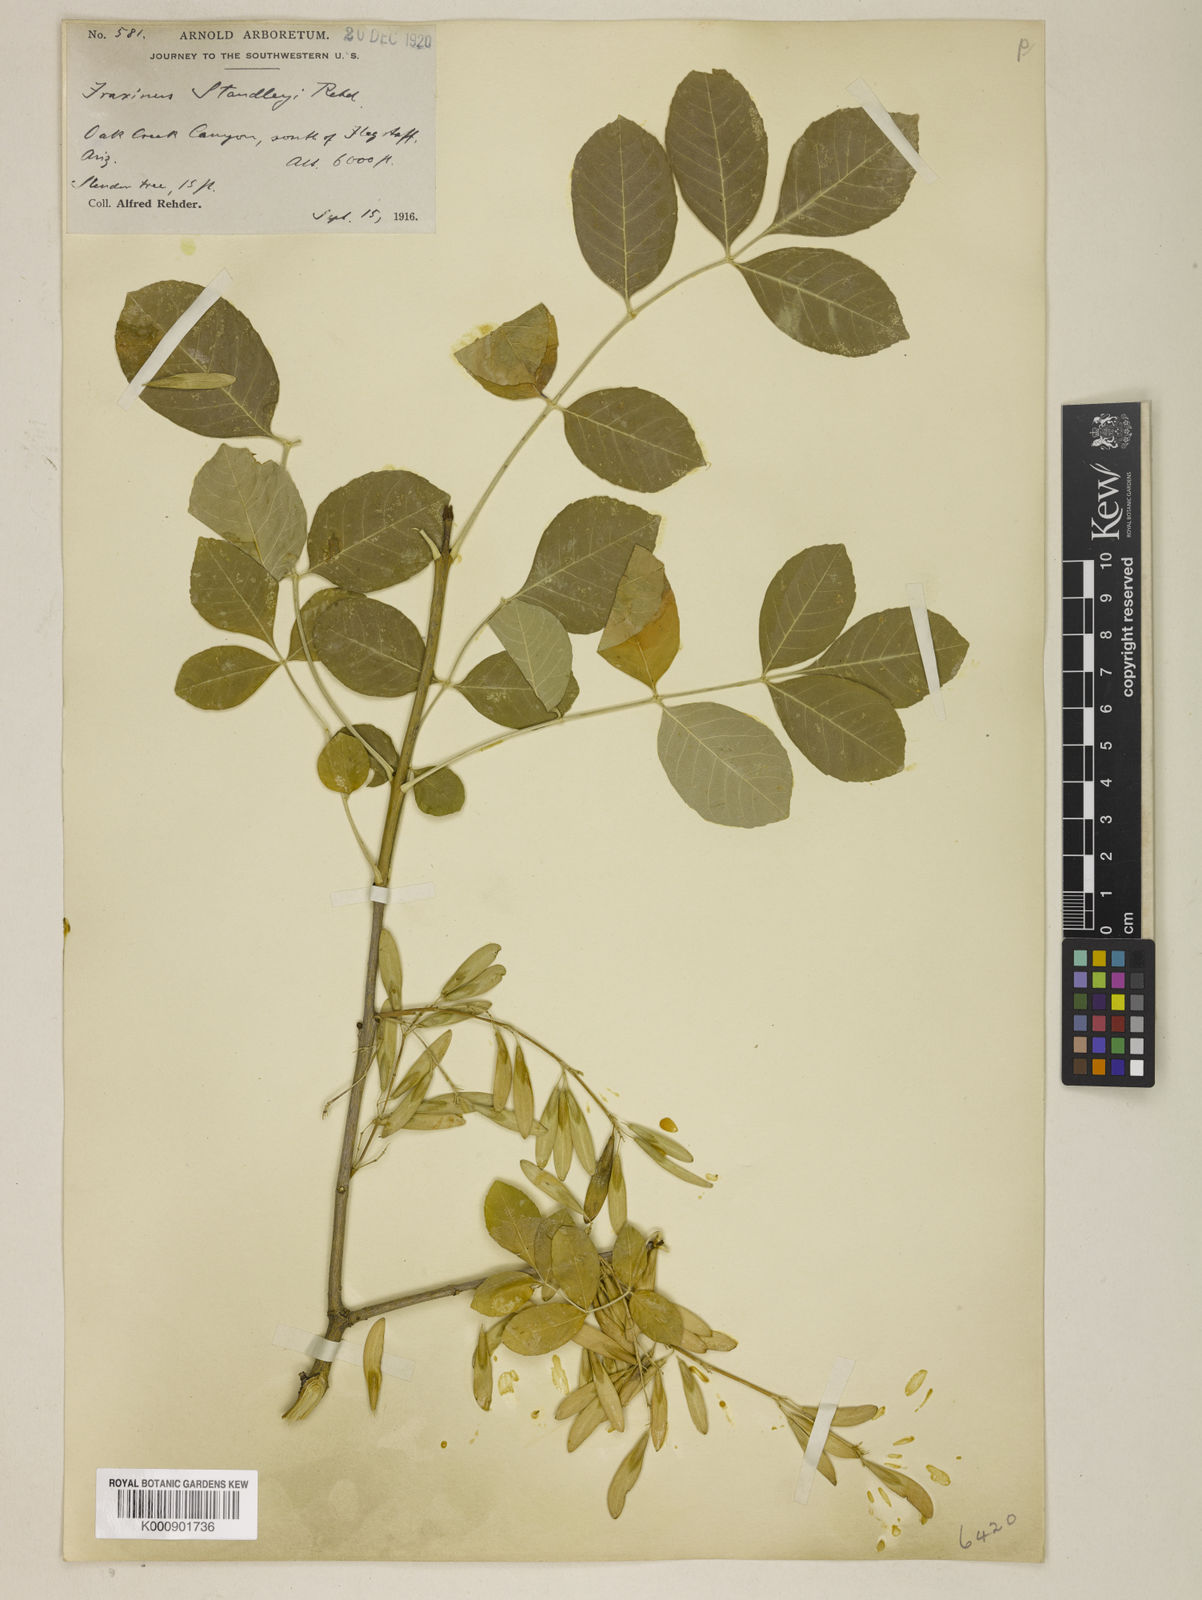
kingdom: Plantae
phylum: Tracheophyta
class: Magnoliopsida
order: Lamiales
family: Oleaceae
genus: Fraxinus
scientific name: Fraxinus pennsylvanica
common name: Green ash
